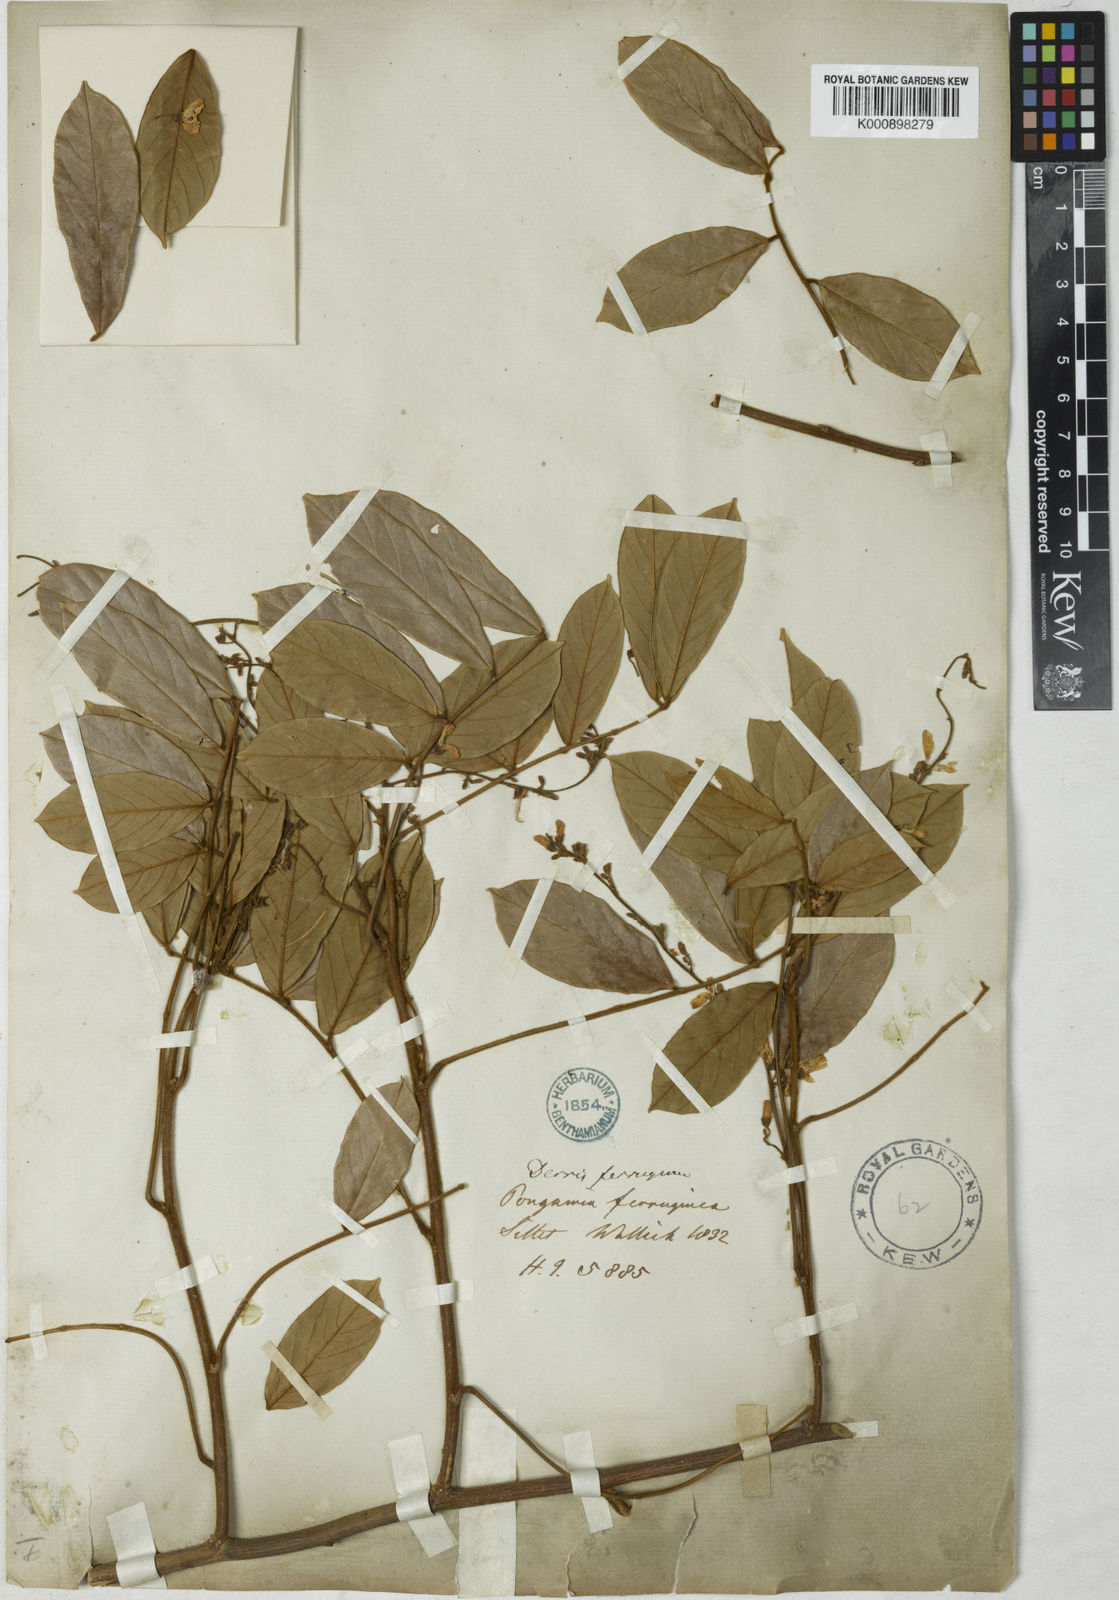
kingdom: Plantae
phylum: Tracheophyta
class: Magnoliopsida
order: Fabales
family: Fabaceae
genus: Derris
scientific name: Derris ferruginea
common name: Indian tubaroot
